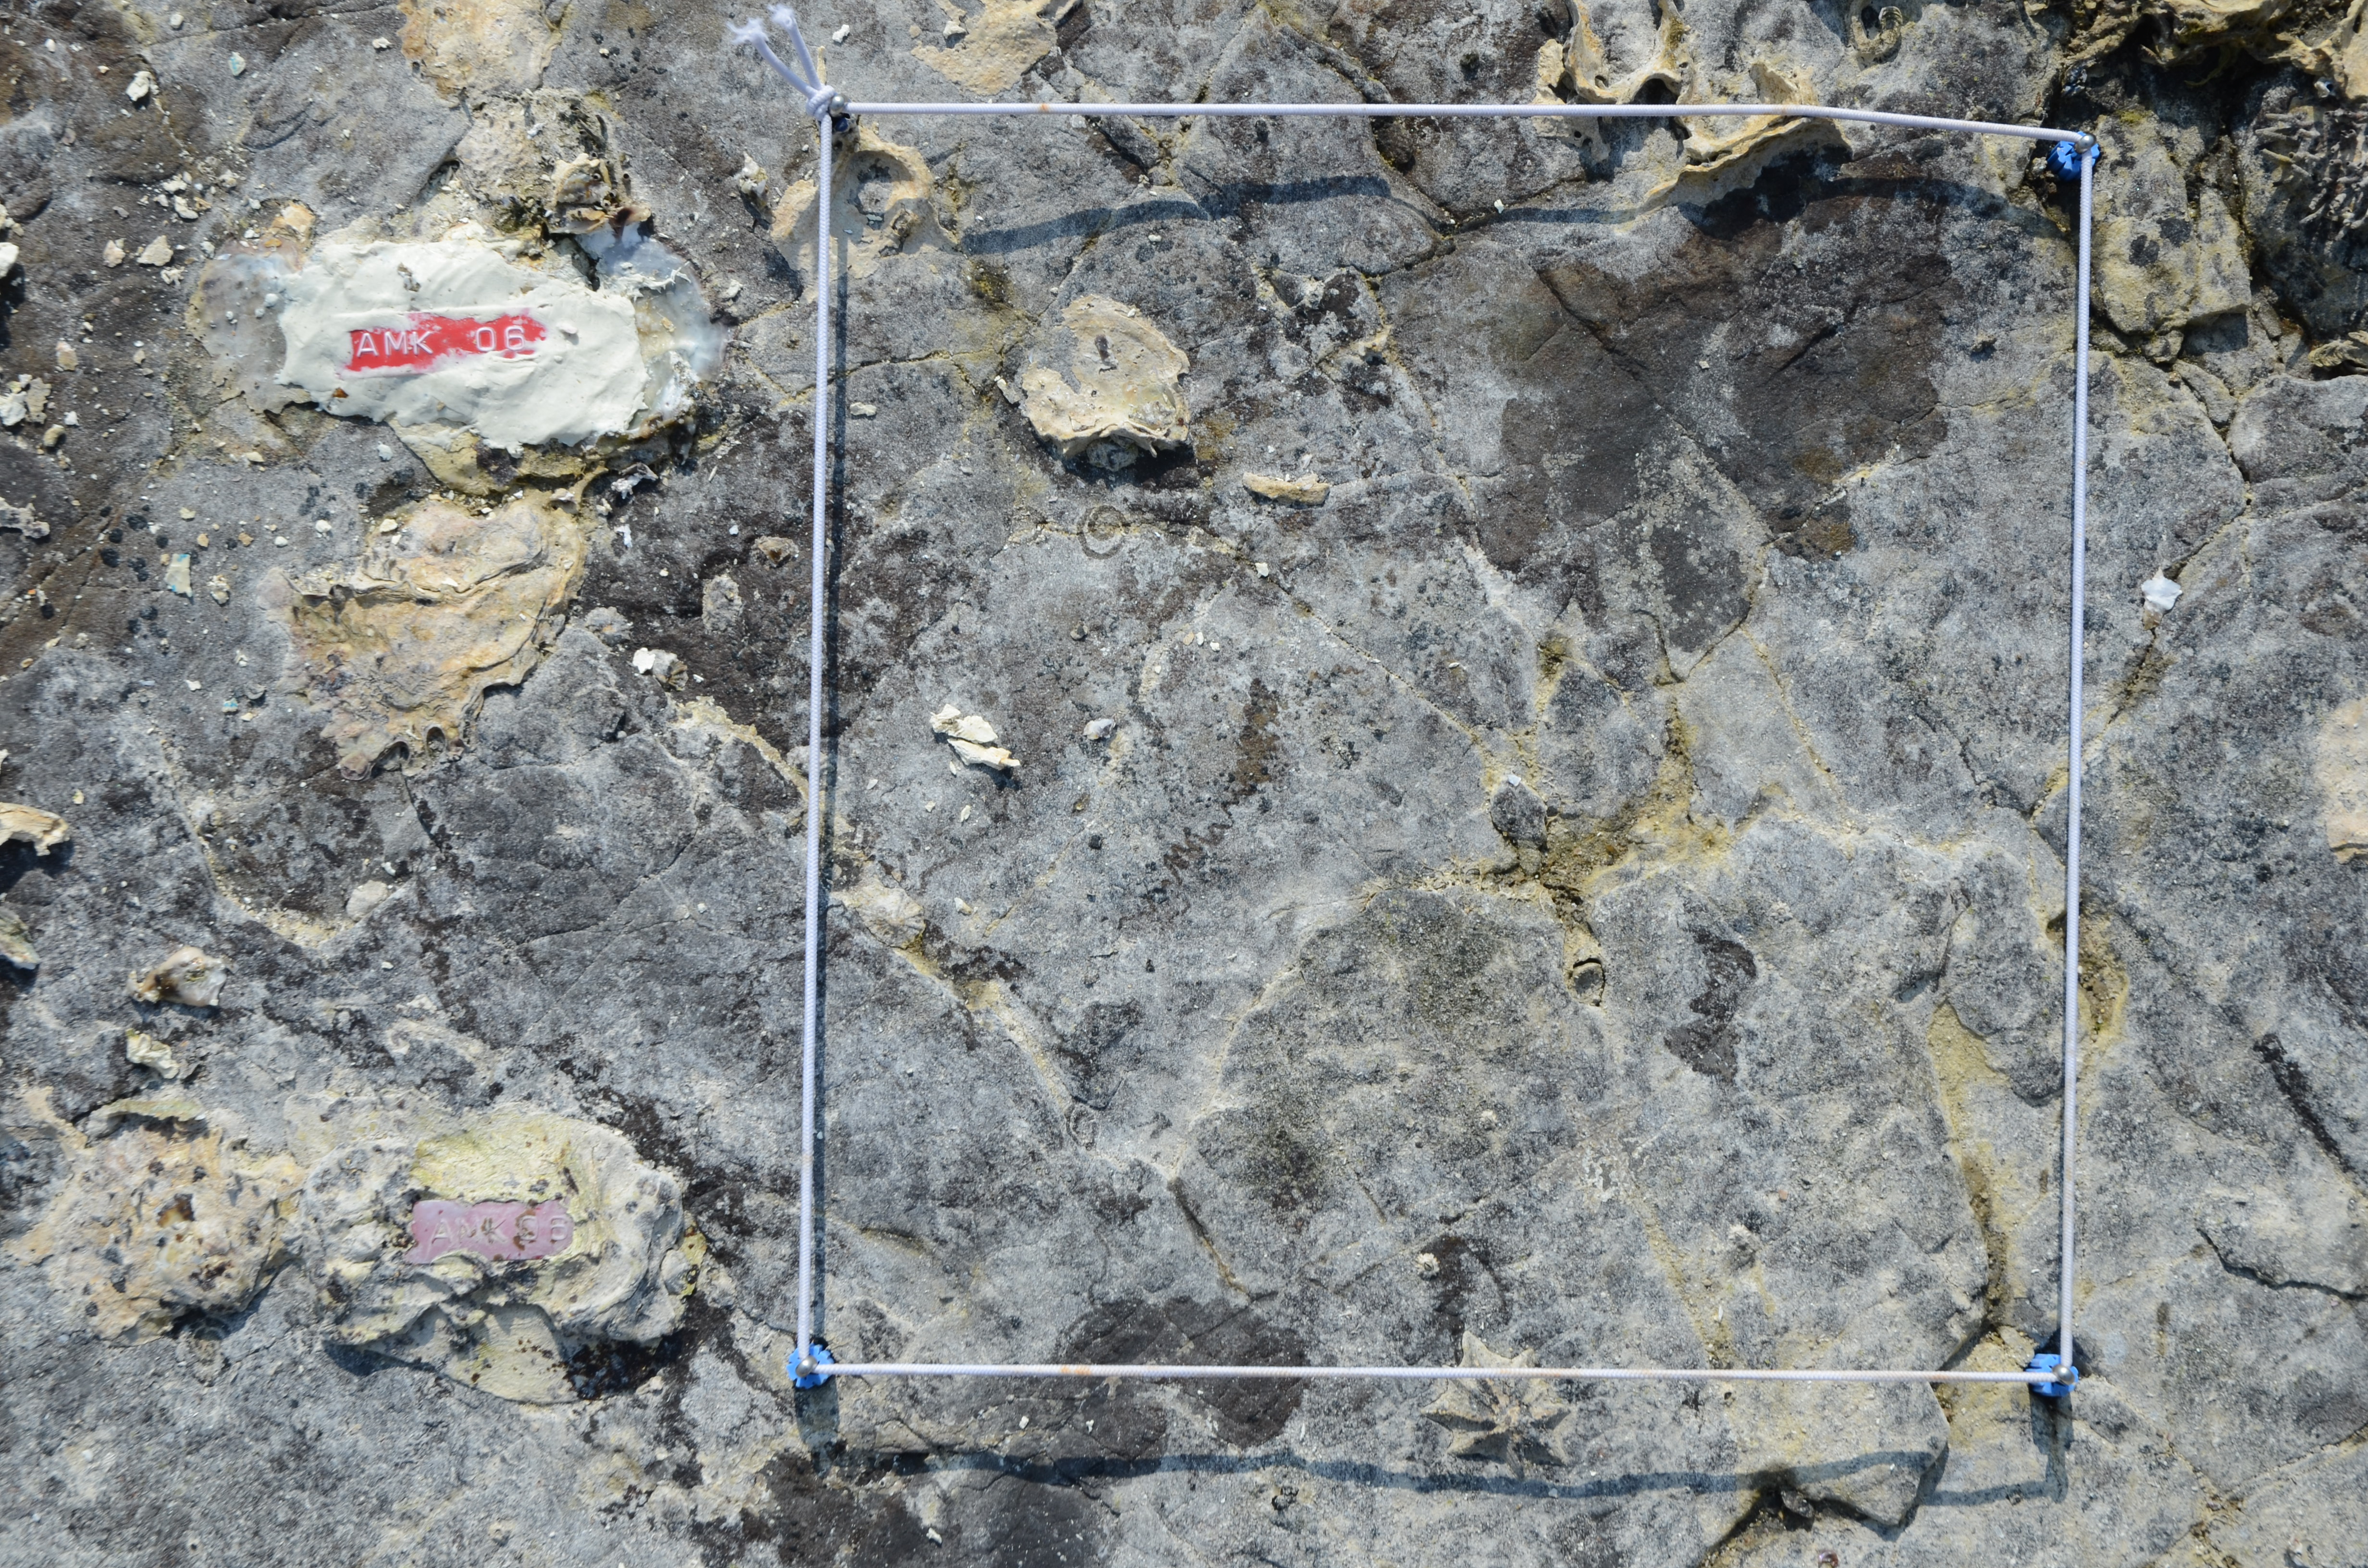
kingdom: Animalia
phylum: Arthropoda
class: Maxillopoda
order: Sessilia
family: Chthamalidae
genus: Chthamalus
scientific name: Chthamalus challengeri
